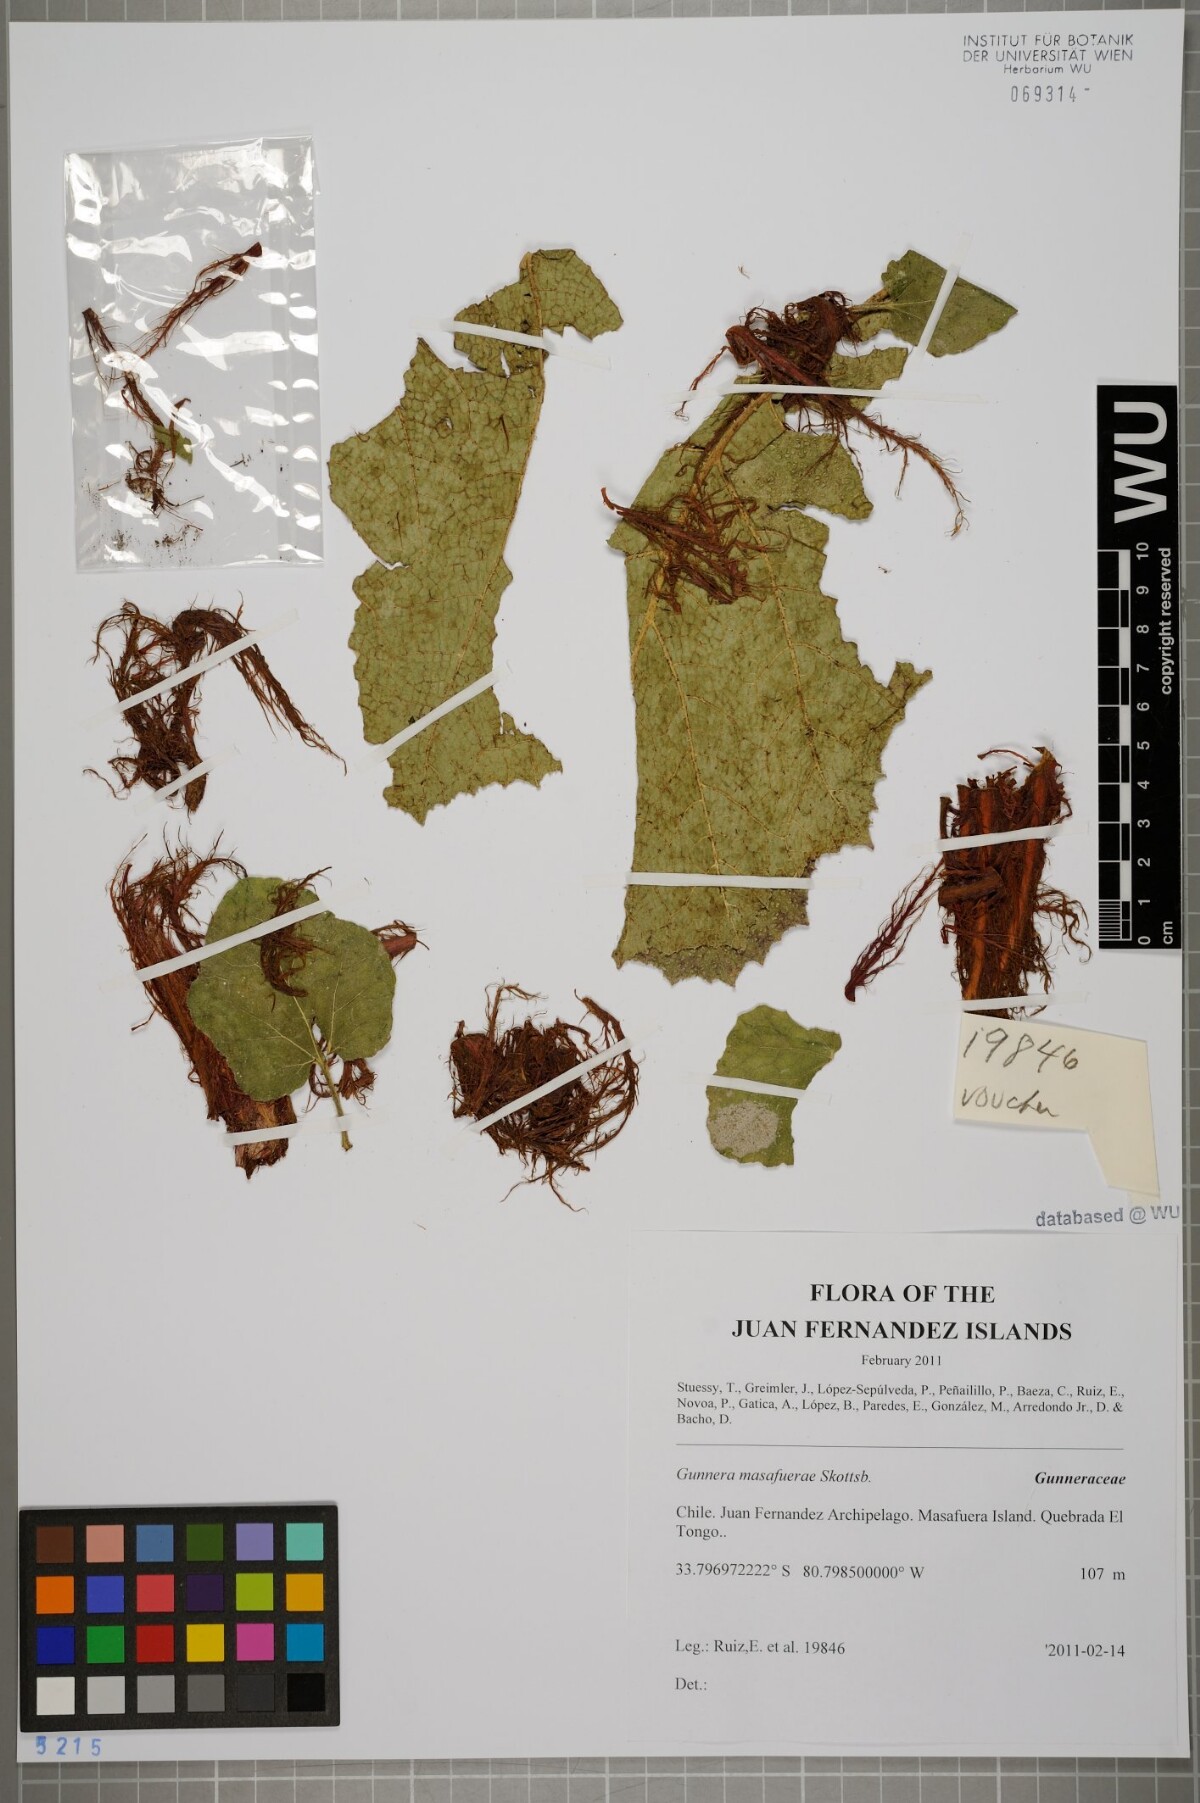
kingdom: Plantae
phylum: Tracheophyta
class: Magnoliopsida
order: Gunnerales
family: Gunneraceae
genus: Gunnera
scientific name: Gunnera masafuerae
